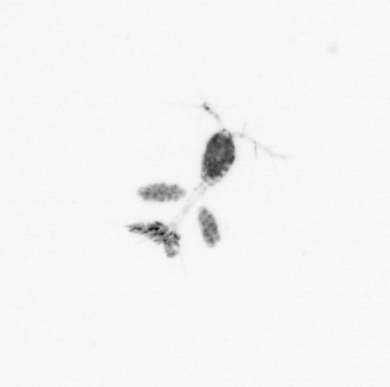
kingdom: Animalia
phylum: Arthropoda
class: Copepoda
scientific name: Copepoda
